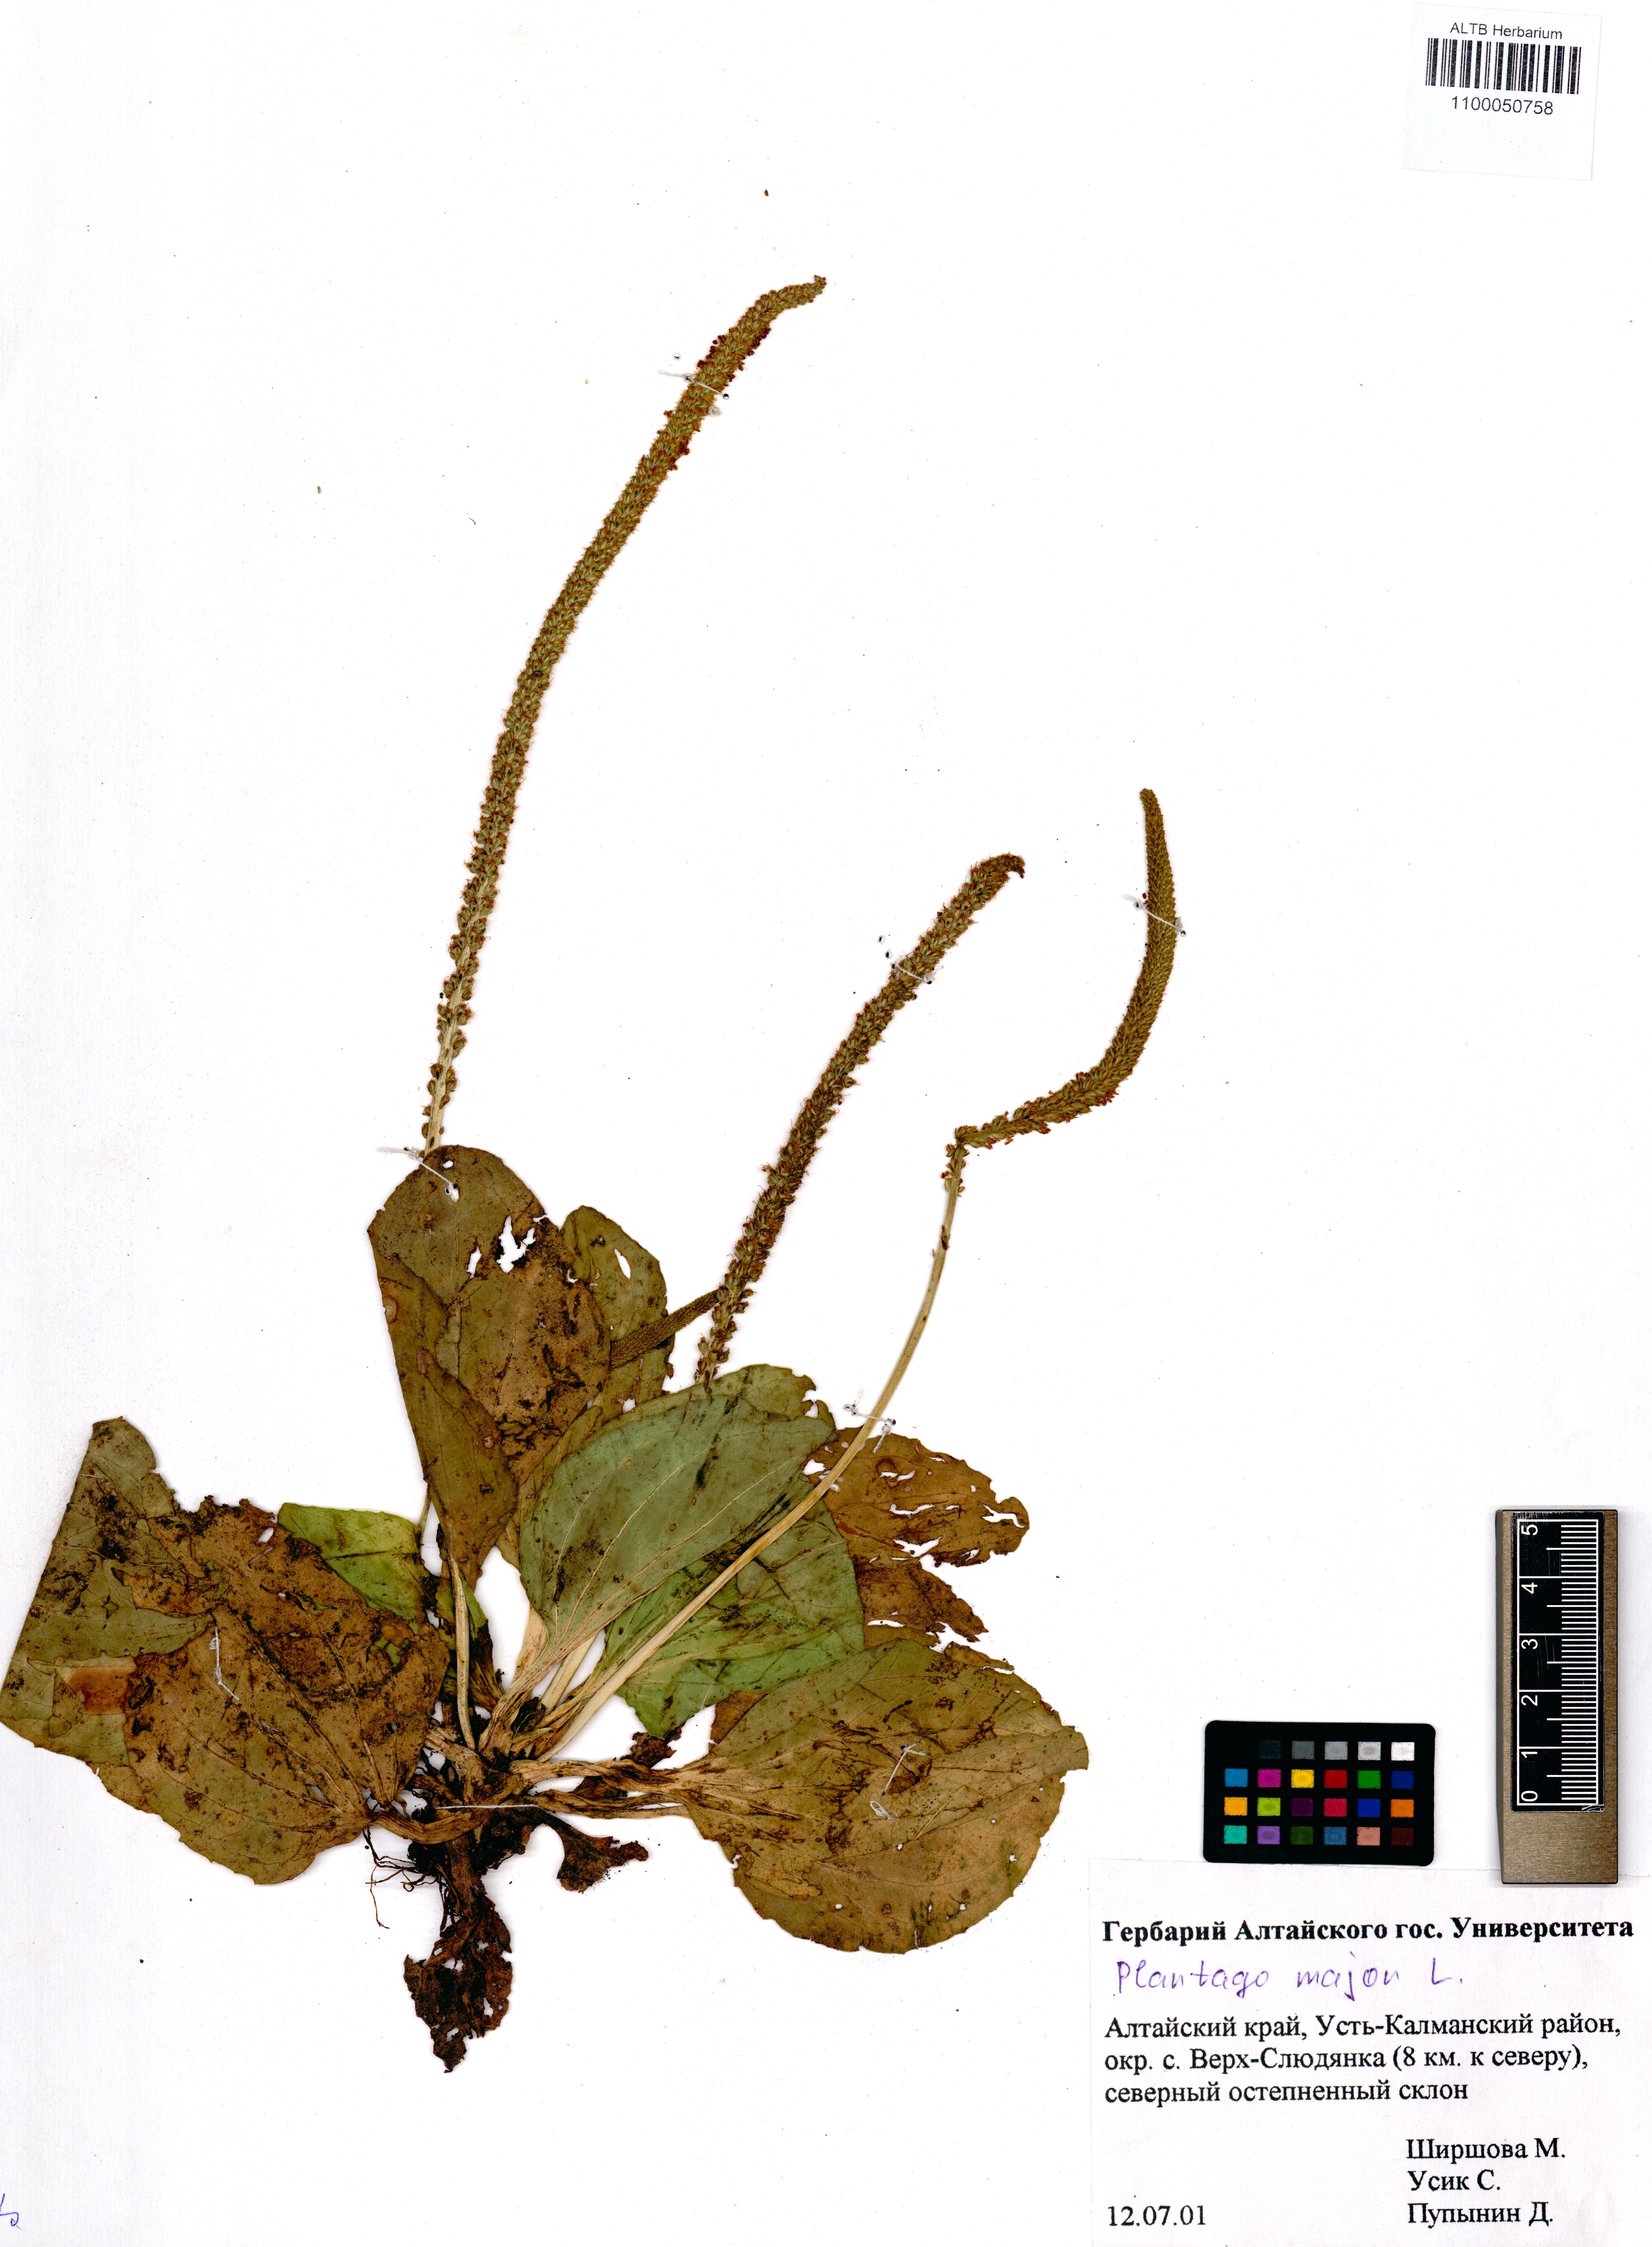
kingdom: Plantae
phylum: Tracheophyta
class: Magnoliopsida
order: Lamiales
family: Plantaginaceae
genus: Plantago
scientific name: Plantago major
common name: Common plantain
